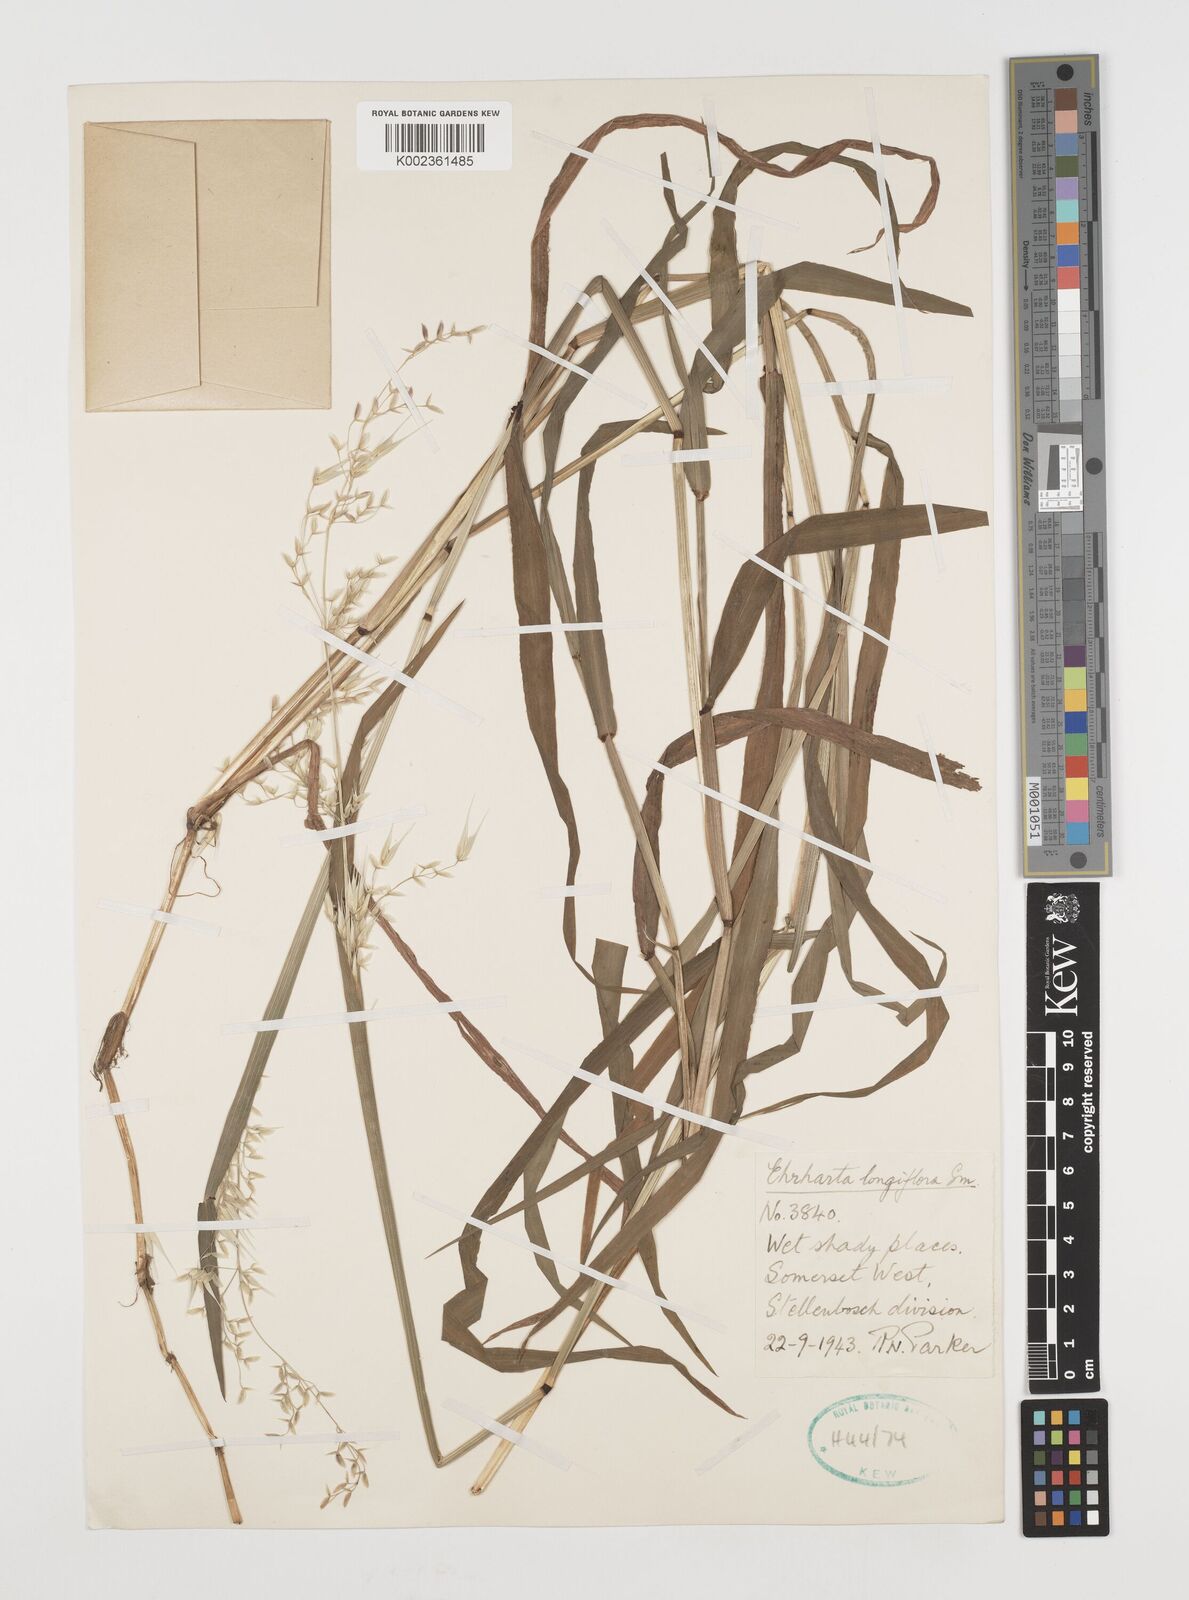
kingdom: Plantae
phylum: Tracheophyta
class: Liliopsida
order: Poales
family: Poaceae
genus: Ehrharta
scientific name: Ehrharta longiflora
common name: Longflowered veldtgrass
